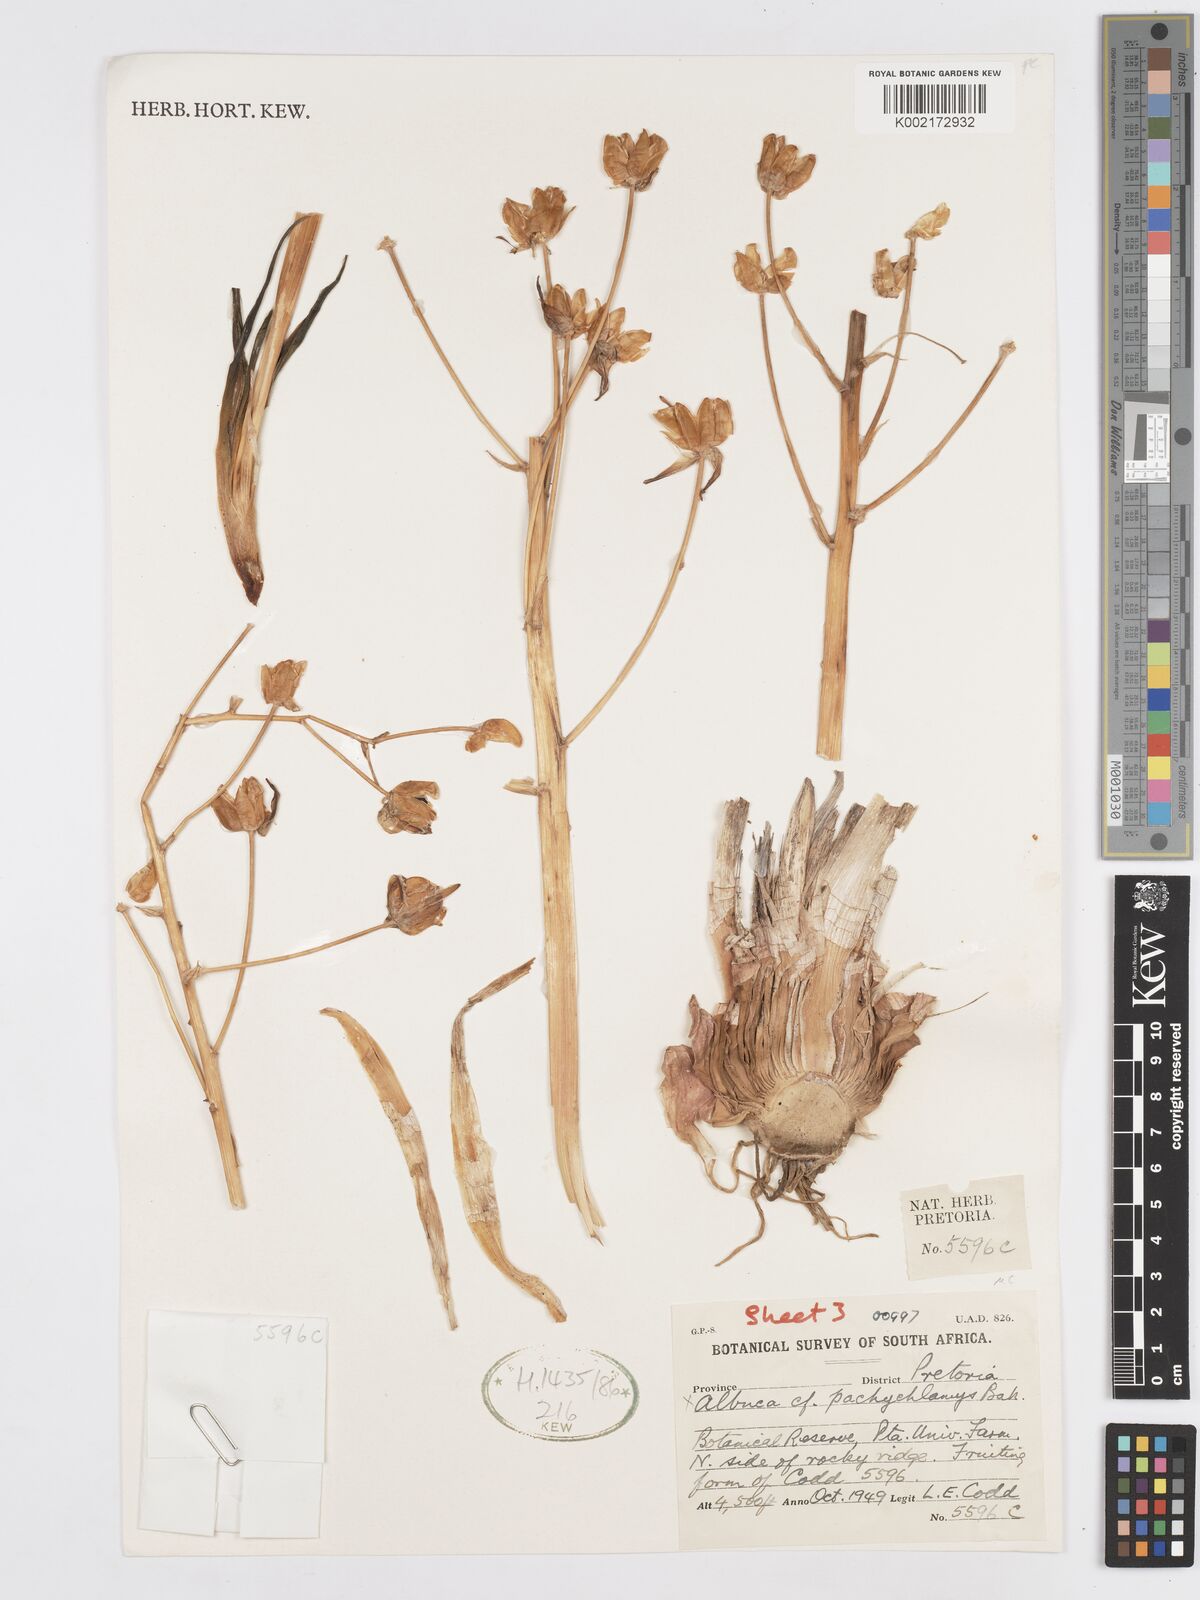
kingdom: Plantae
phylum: Tracheophyta
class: Liliopsida
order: Asparagales
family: Asparagaceae
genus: Albuca
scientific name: Albuca setosa
